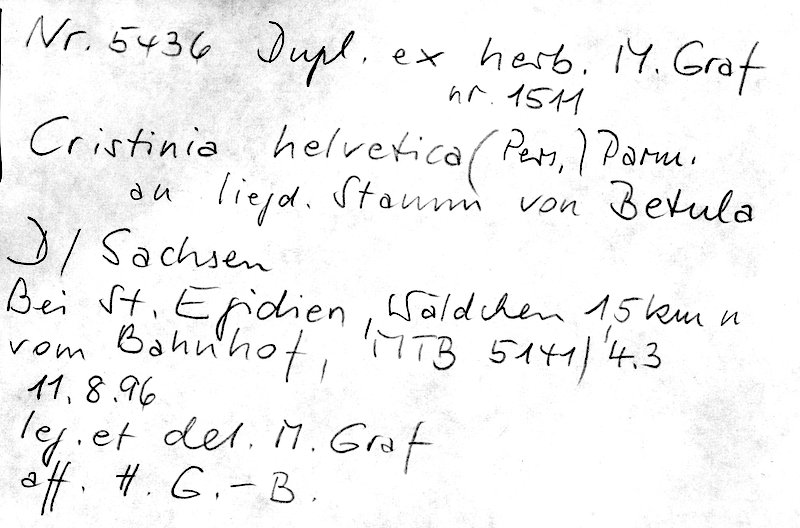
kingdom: Fungi
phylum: Basidiomycota
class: Agaricomycetes
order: Agaricales
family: Stephanosporaceae
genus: Cristinia
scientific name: Cristinia helvetica
